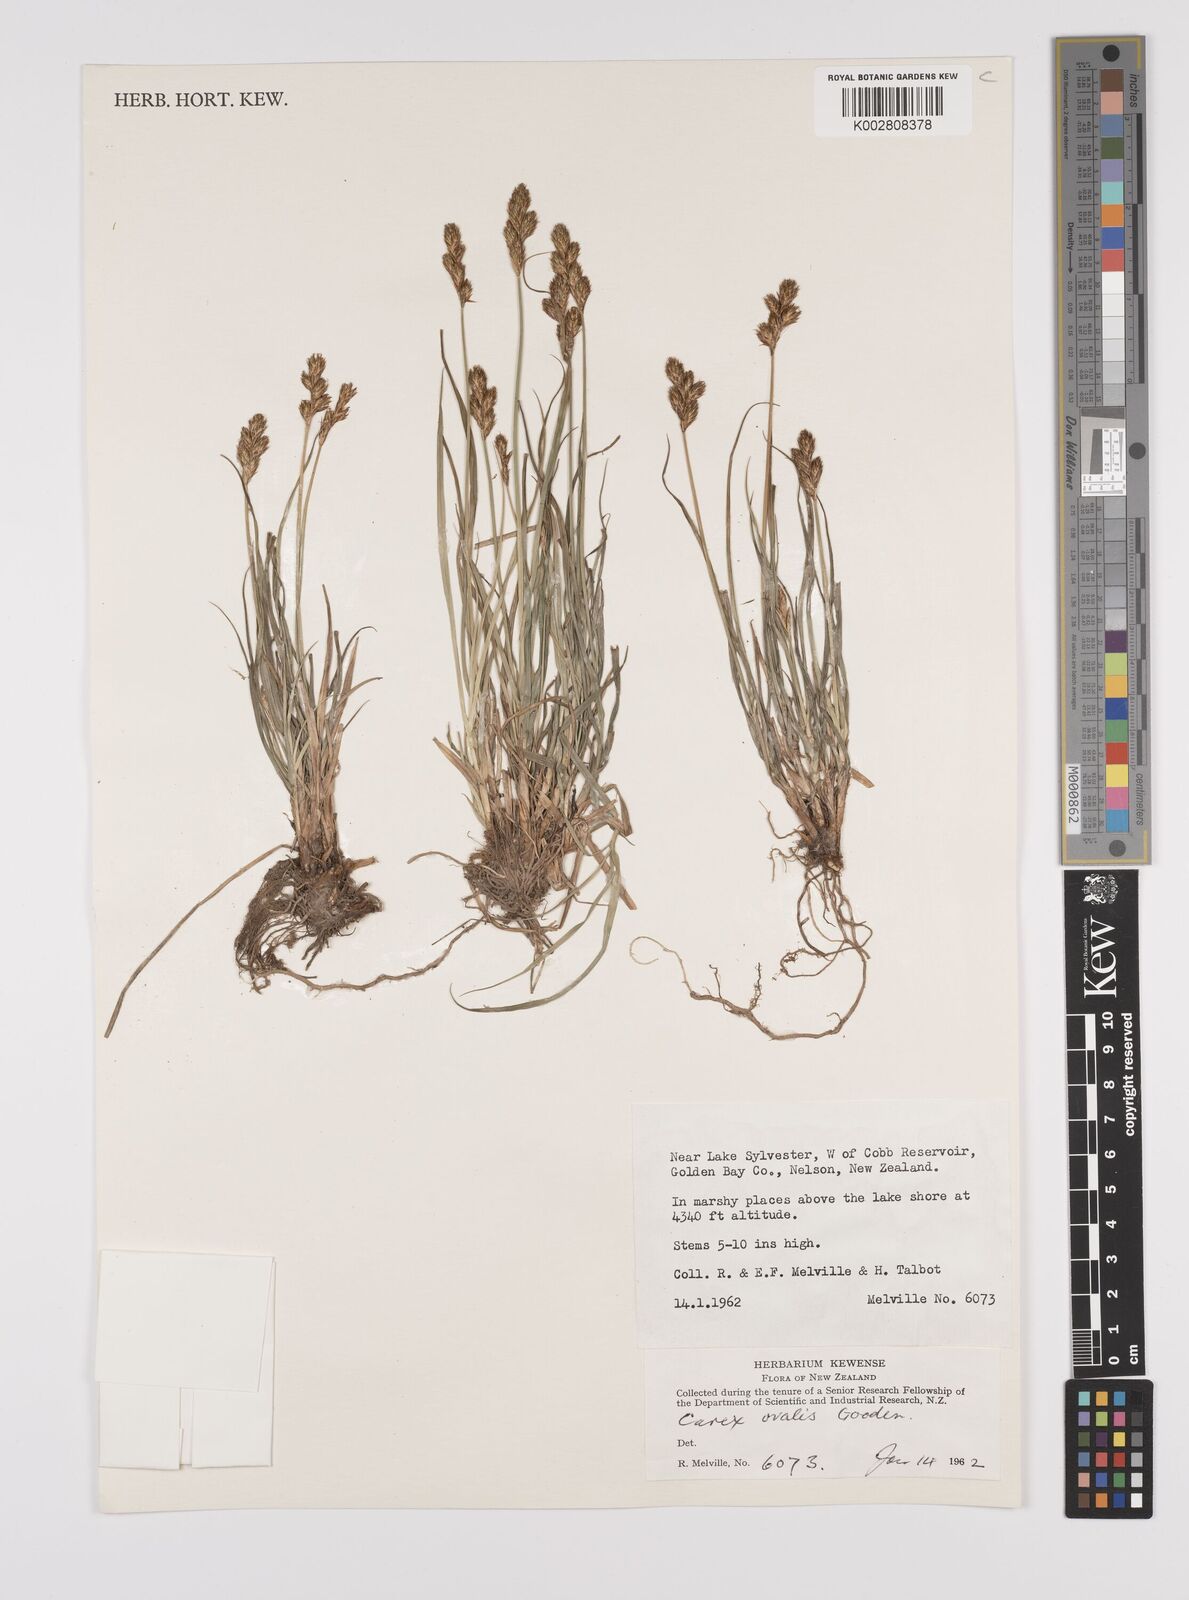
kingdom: Plantae
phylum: Tracheophyta
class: Liliopsida
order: Poales
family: Cyperaceae
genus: Carex
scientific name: Carex leporina
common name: Oval sedge
